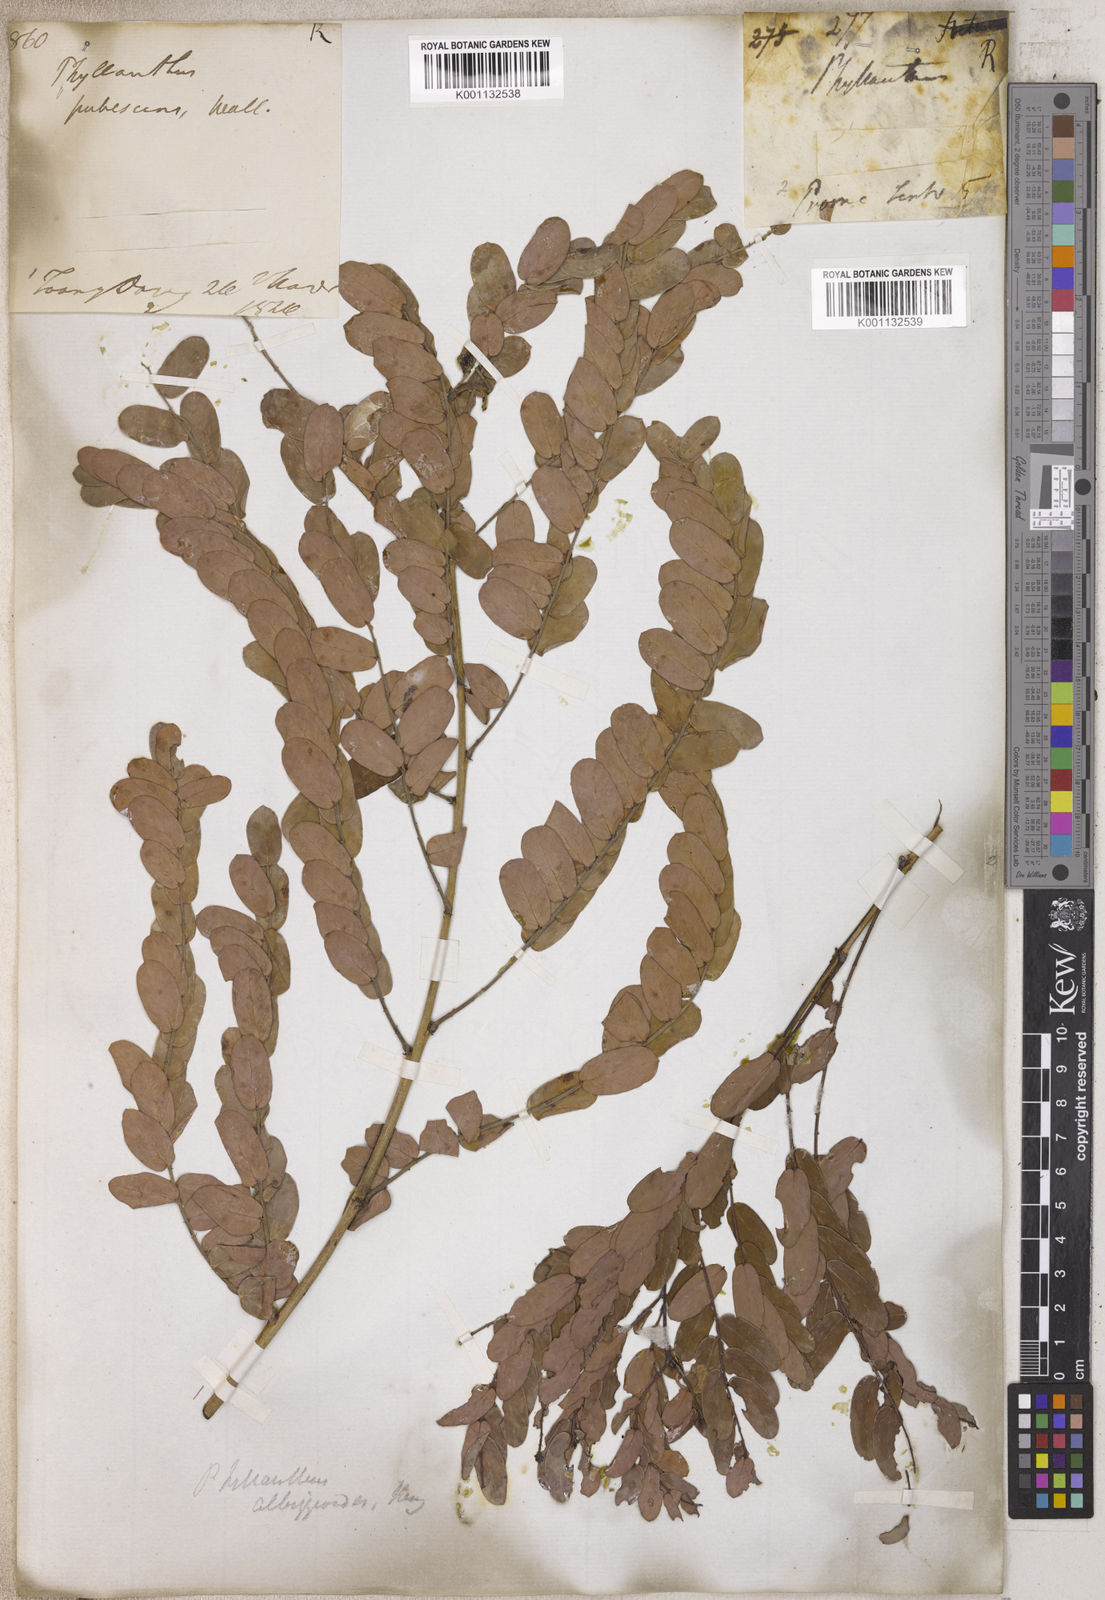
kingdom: Plantae
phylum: Tracheophyta
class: Magnoliopsida
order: Malpighiales
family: Phyllanthaceae
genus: Phyllanthus
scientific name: Phyllanthus
